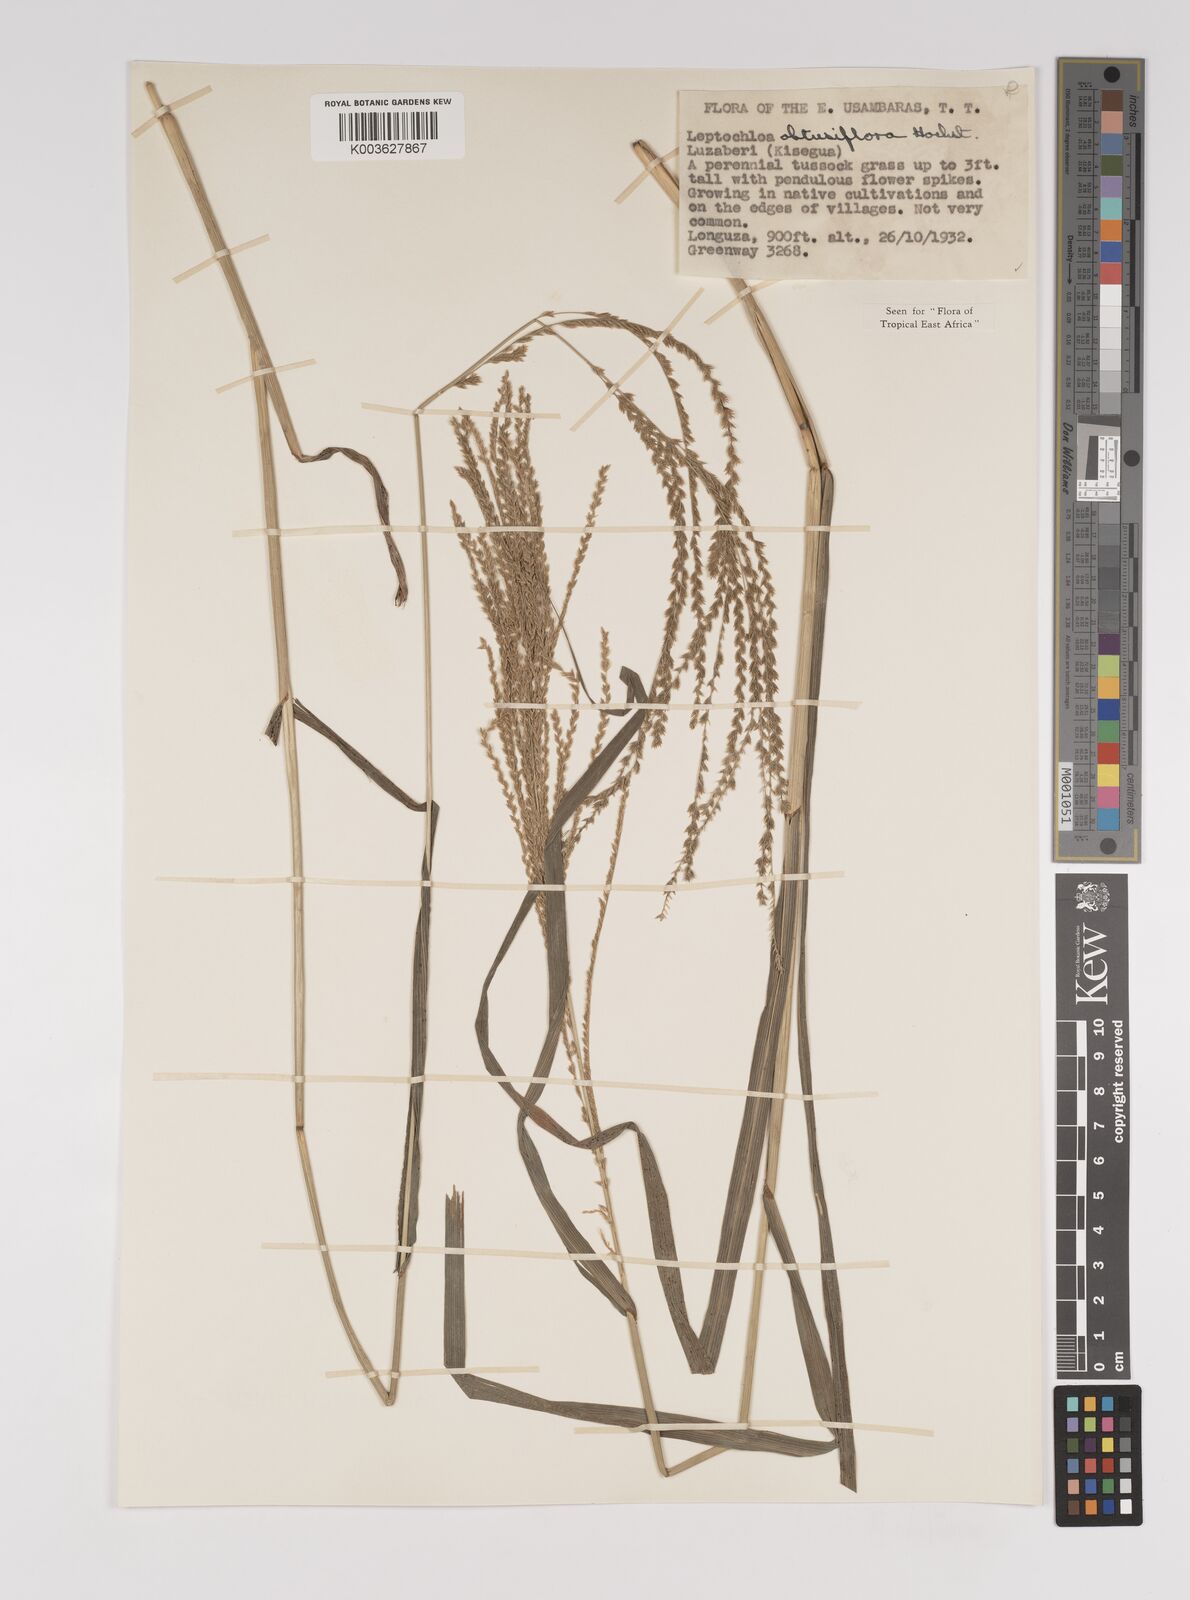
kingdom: Plantae
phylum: Tracheophyta
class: Liliopsida
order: Poales
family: Poaceae
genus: Disakisperma
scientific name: Disakisperma obtusiflorum
